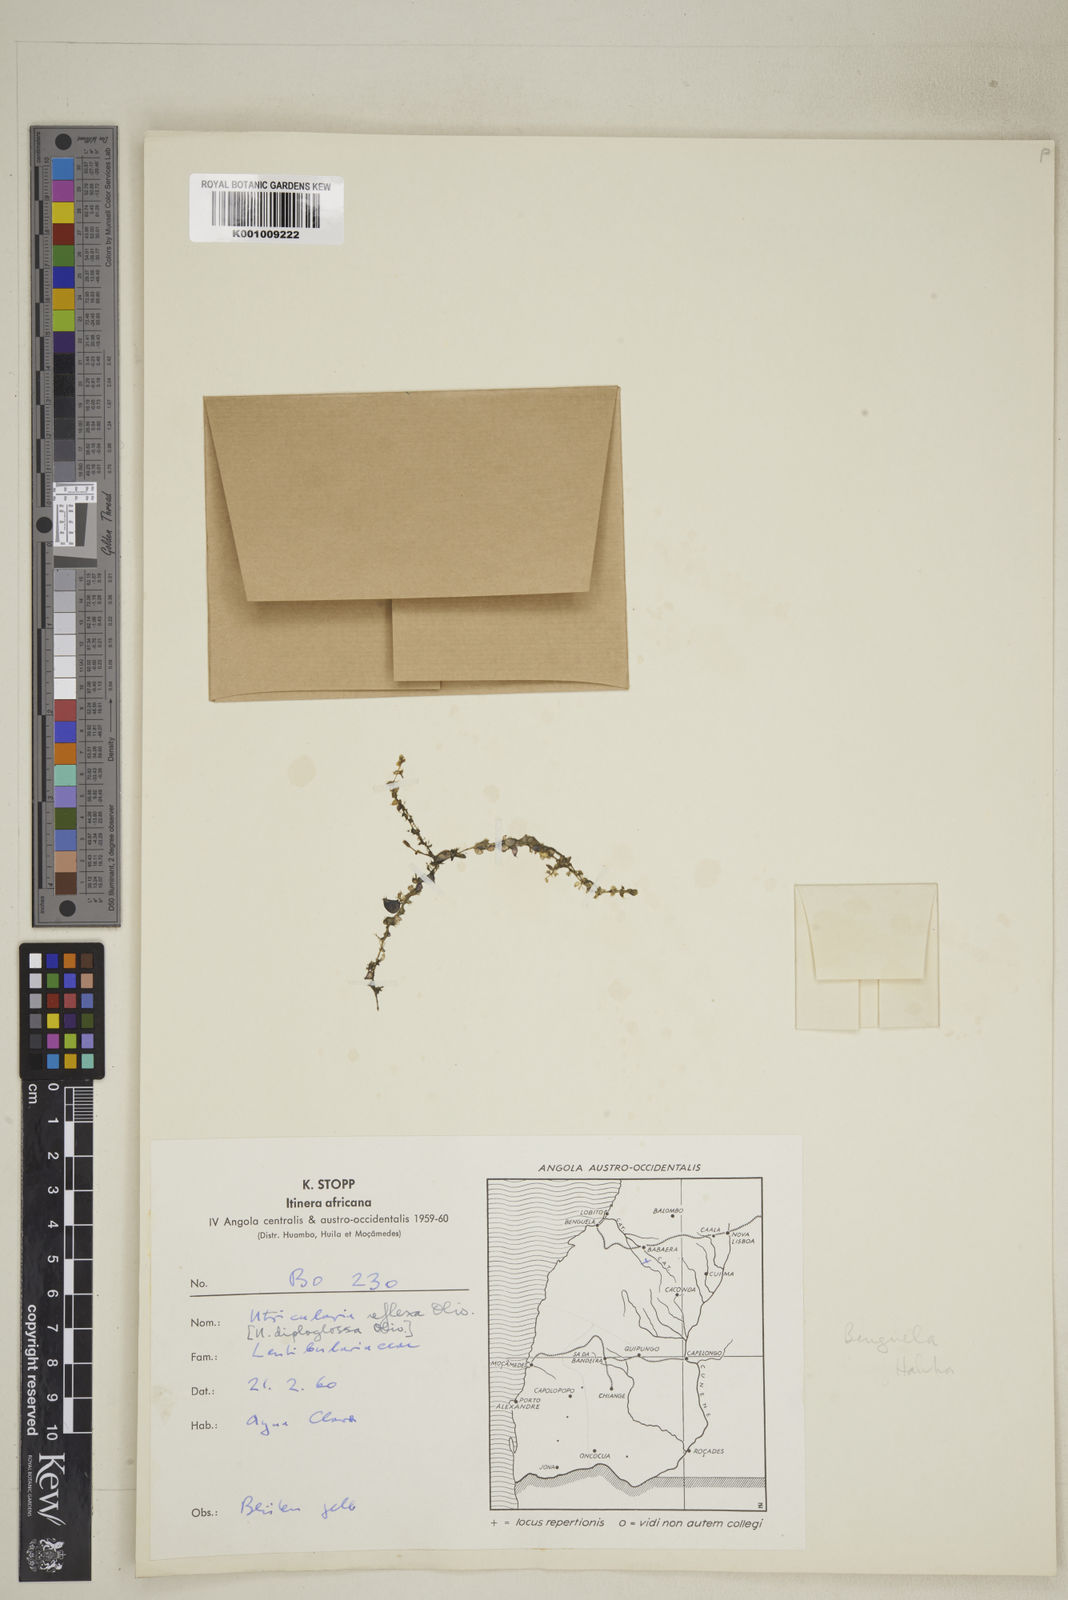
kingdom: Plantae
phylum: Tracheophyta
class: Magnoliopsida
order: Lamiales
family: Lentibulariaceae
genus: Utricularia
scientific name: Utricularia reflexa
